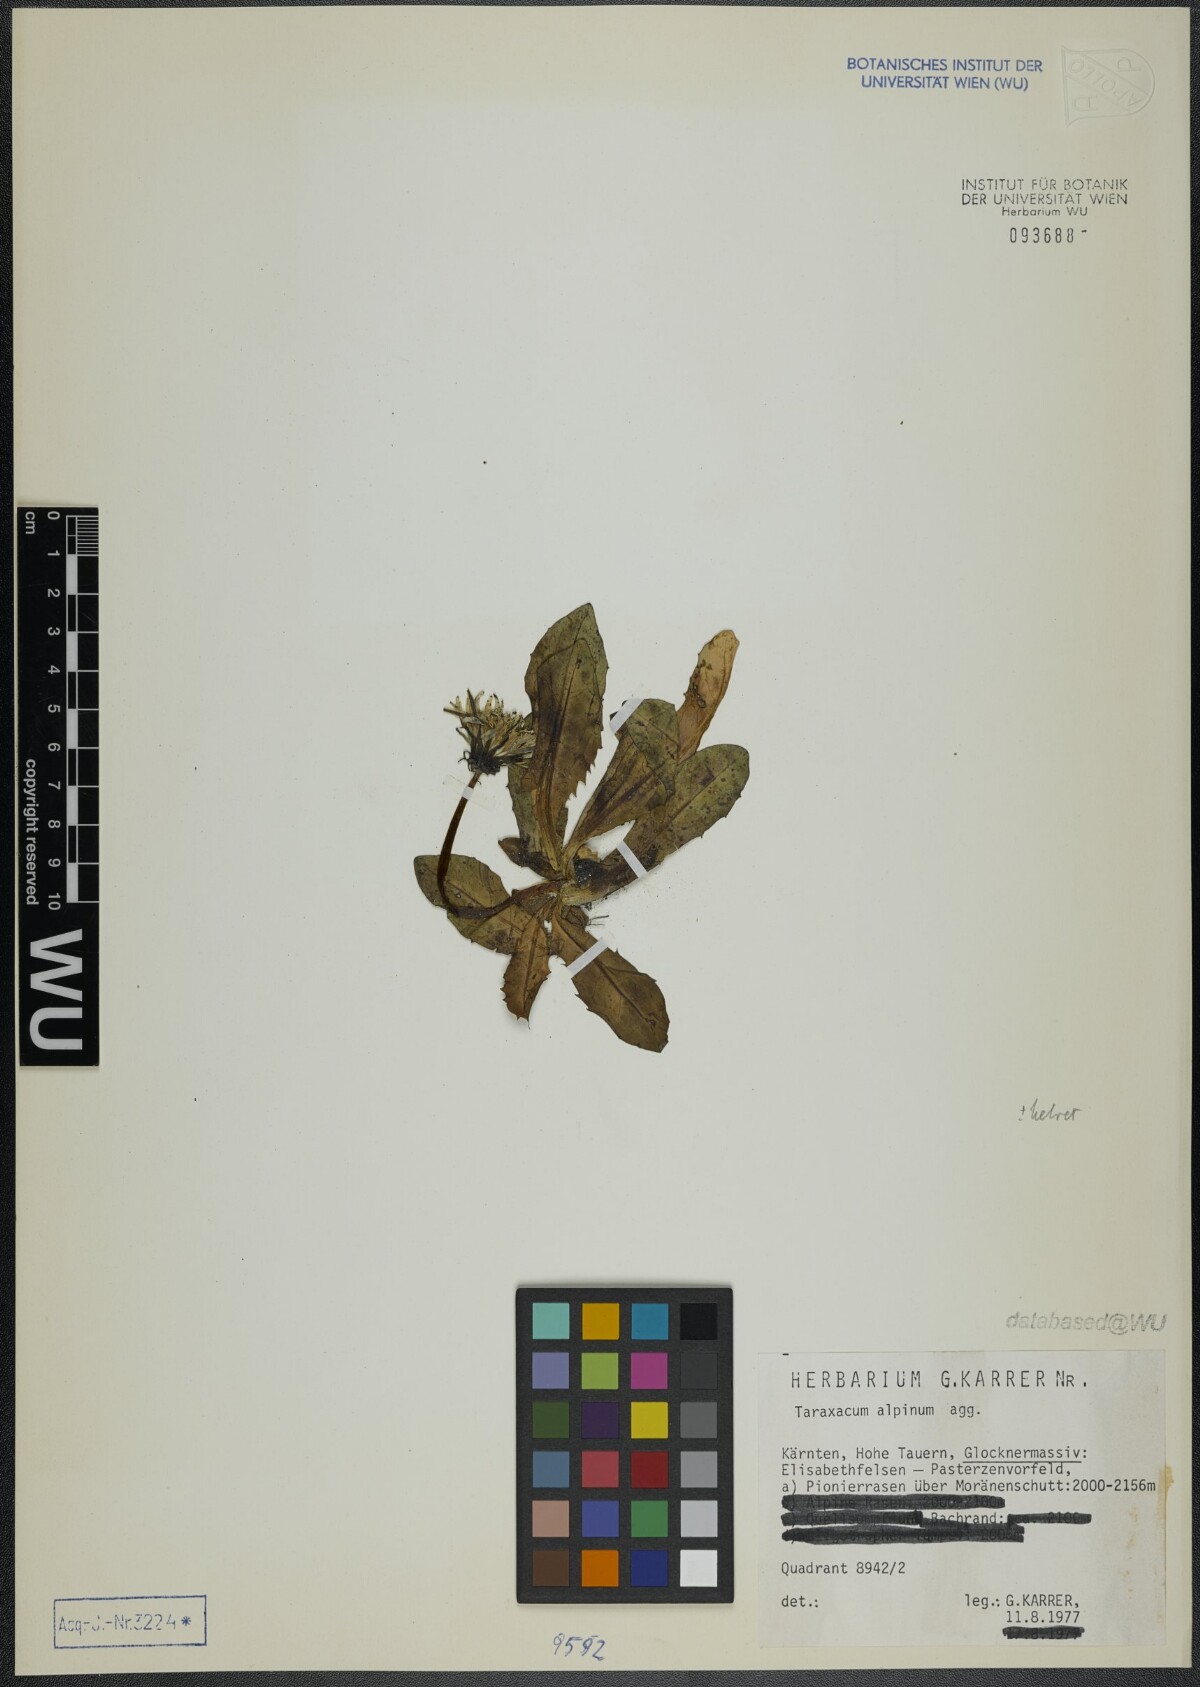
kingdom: Plantae
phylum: Tracheophyta
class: Magnoliopsida
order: Asterales
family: Asteraceae
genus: Taraxacum
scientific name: Taraxacum alpinum
